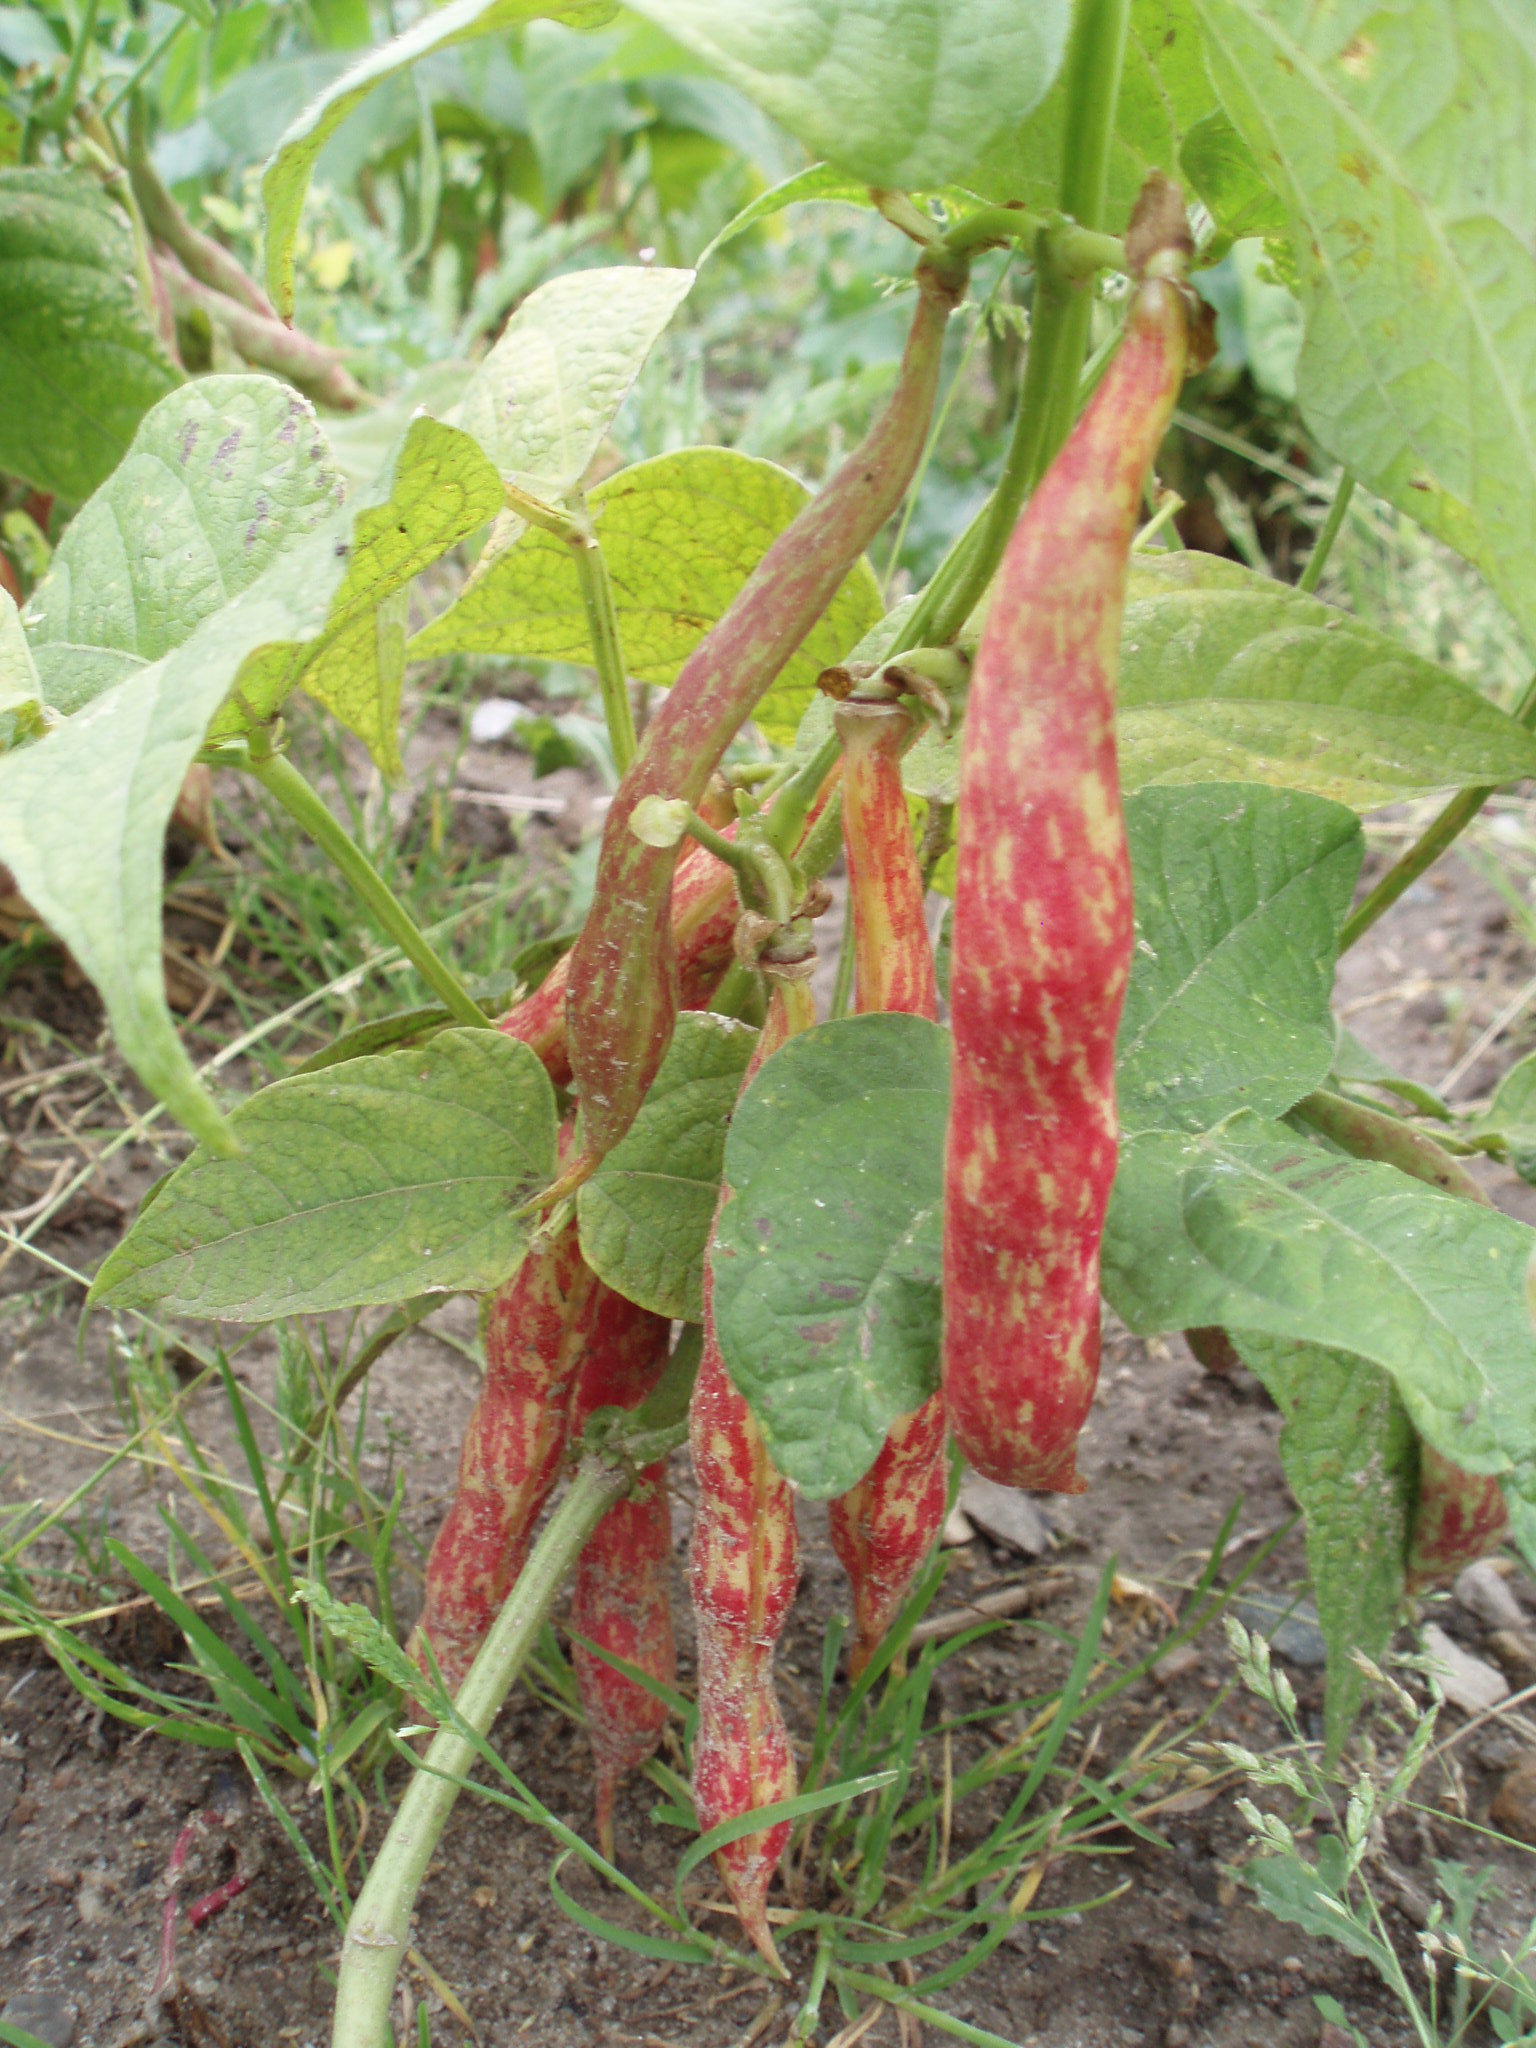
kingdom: Plantae
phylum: Tracheophyta
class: Magnoliopsida
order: Fabales
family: Fabaceae
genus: Phaseolus
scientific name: Phaseolus vulgaris
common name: Bean
